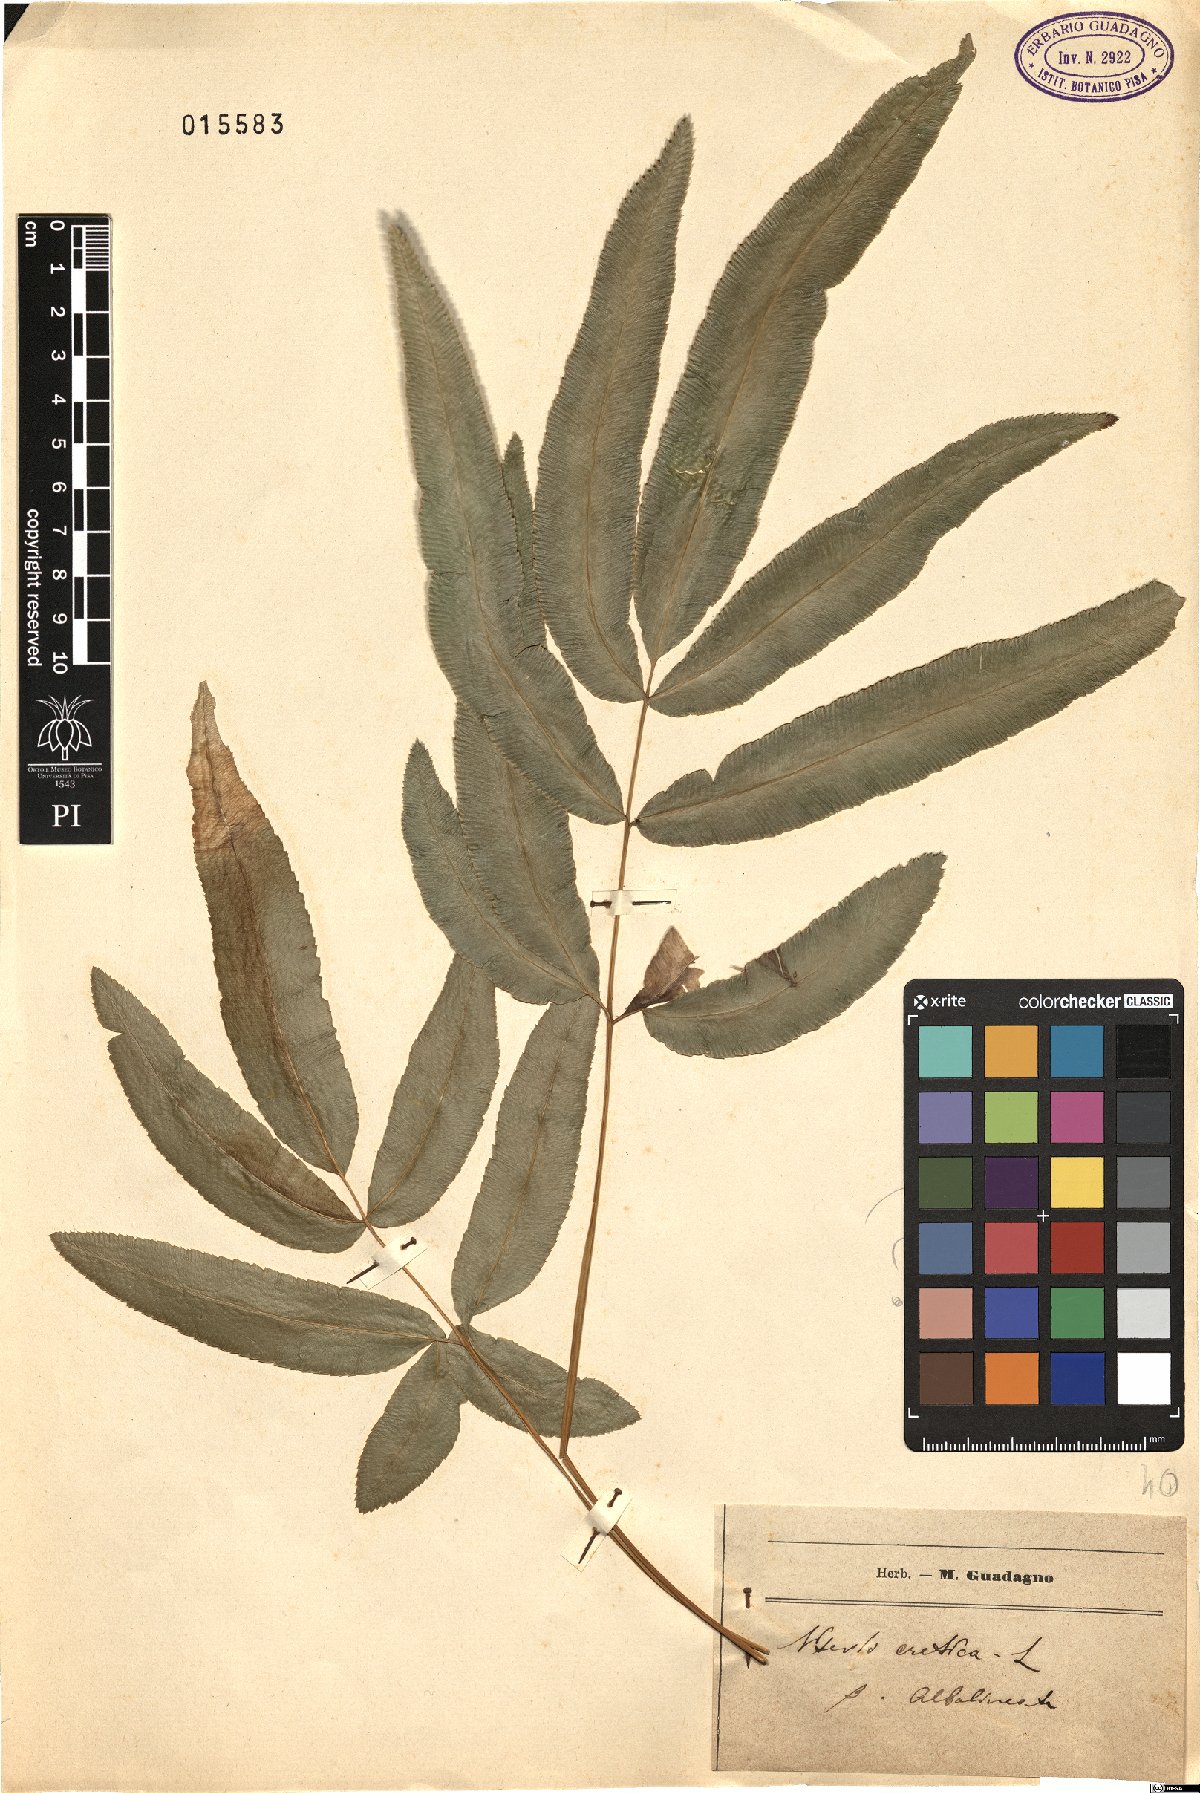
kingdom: Plantae
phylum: Tracheophyta
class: Polypodiopsida
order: Polypodiales
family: Pteridaceae
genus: Pteris
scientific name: Pteris parkeri
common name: Cretan brake
